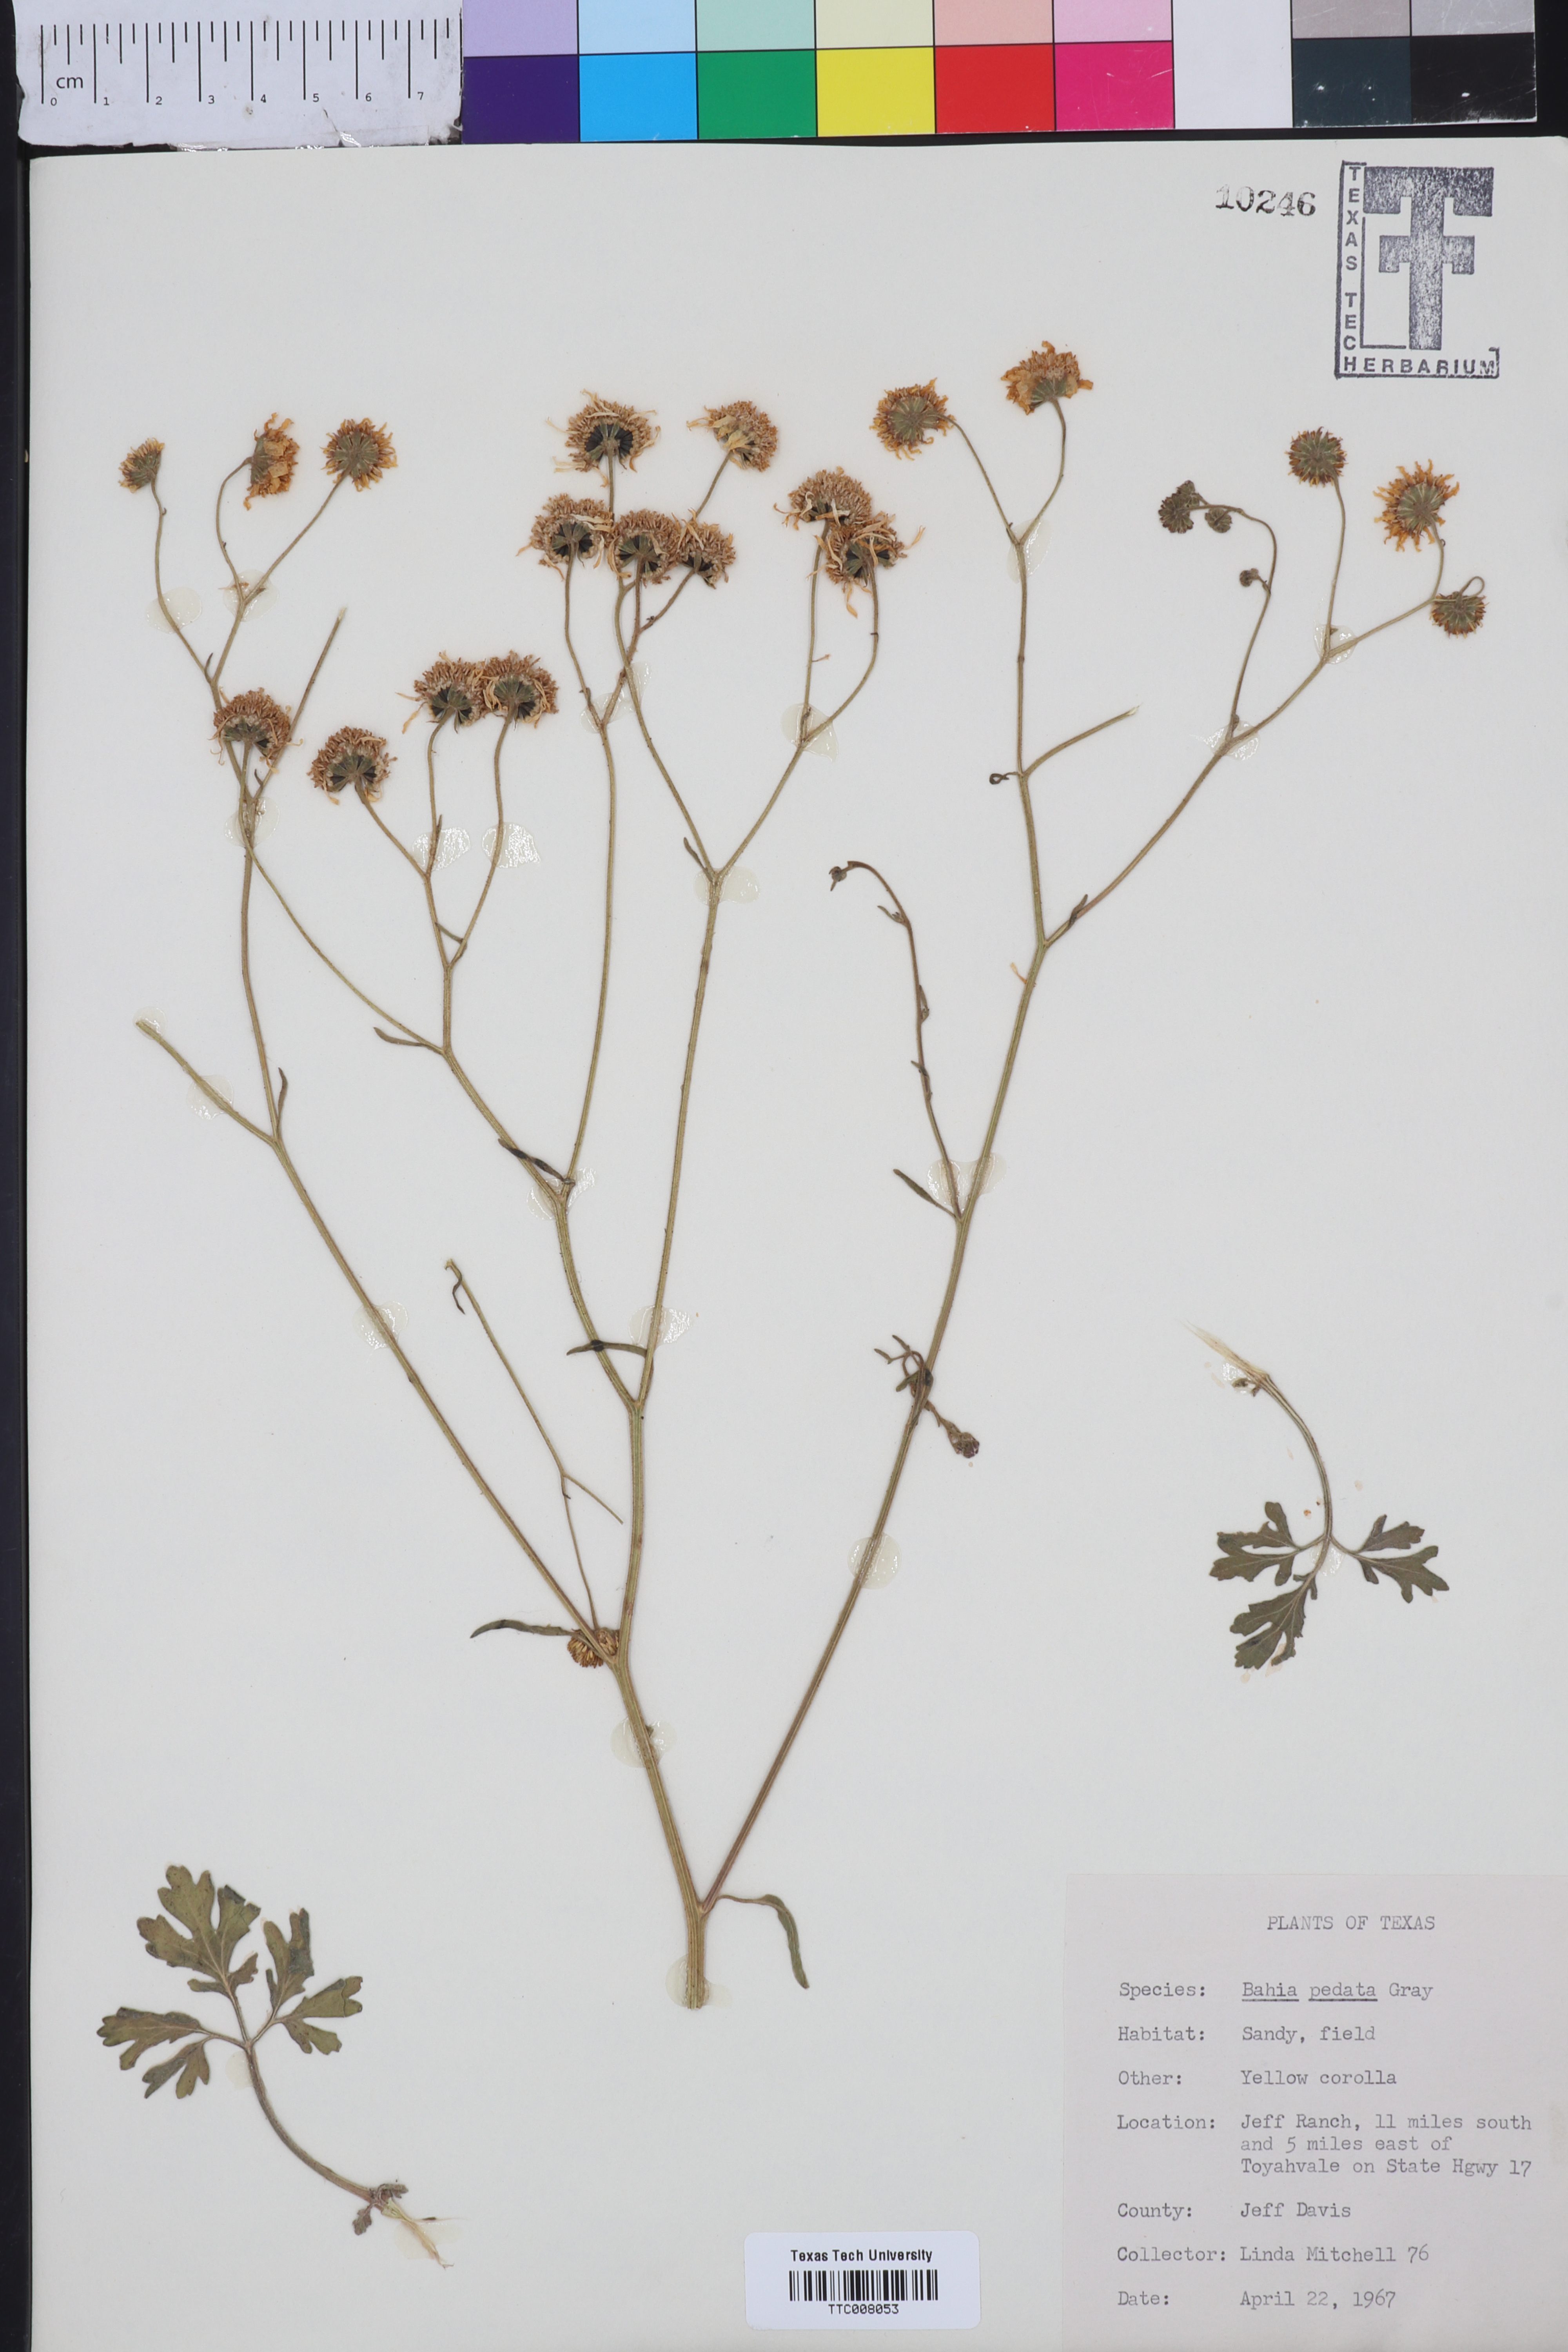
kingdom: Plantae
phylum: Tracheophyta
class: Magnoliopsida
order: Asterales
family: Asteraceae
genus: Hymenothrix
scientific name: Hymenothrix pedata
